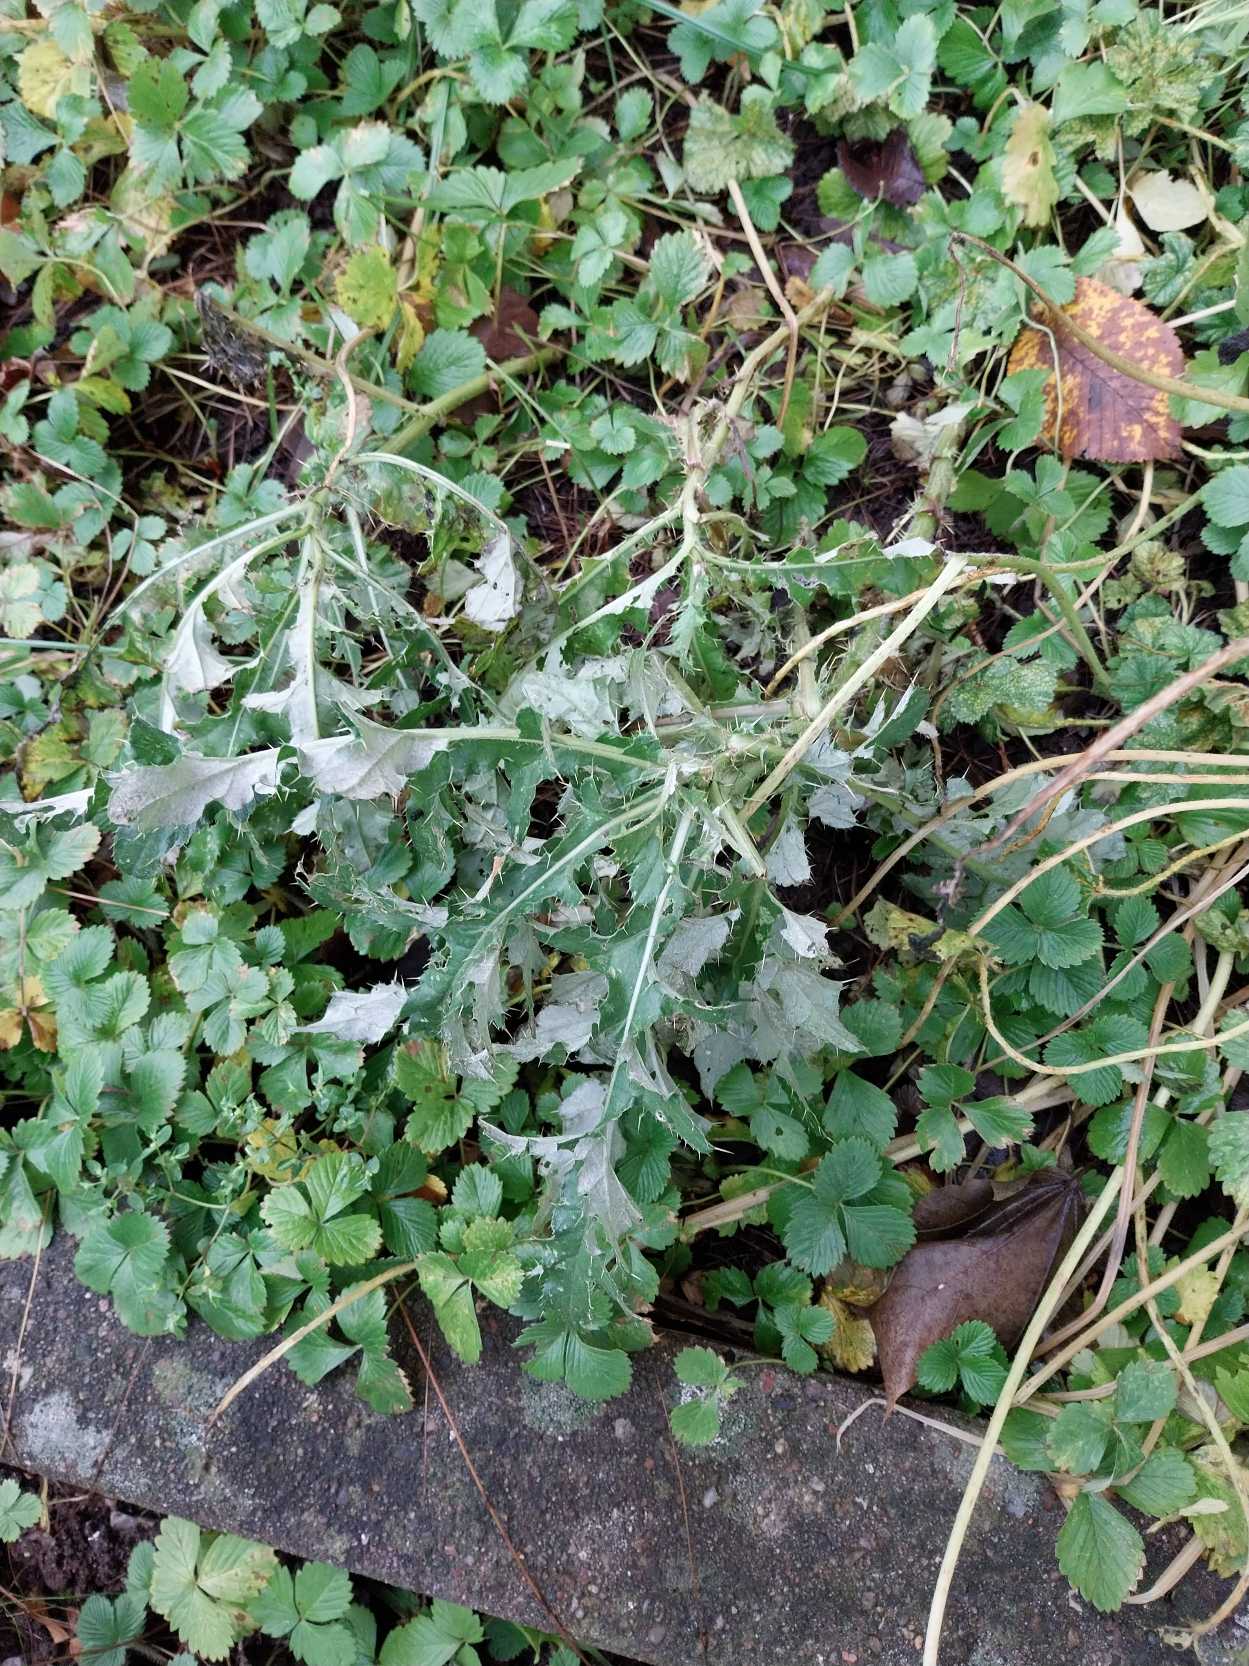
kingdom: Plantae
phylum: Tracheophyta
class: Magnoliopsida
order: Asterales
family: Asteraceae
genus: Cirsium
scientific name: Cirsium arvense
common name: Ager-tidsel
